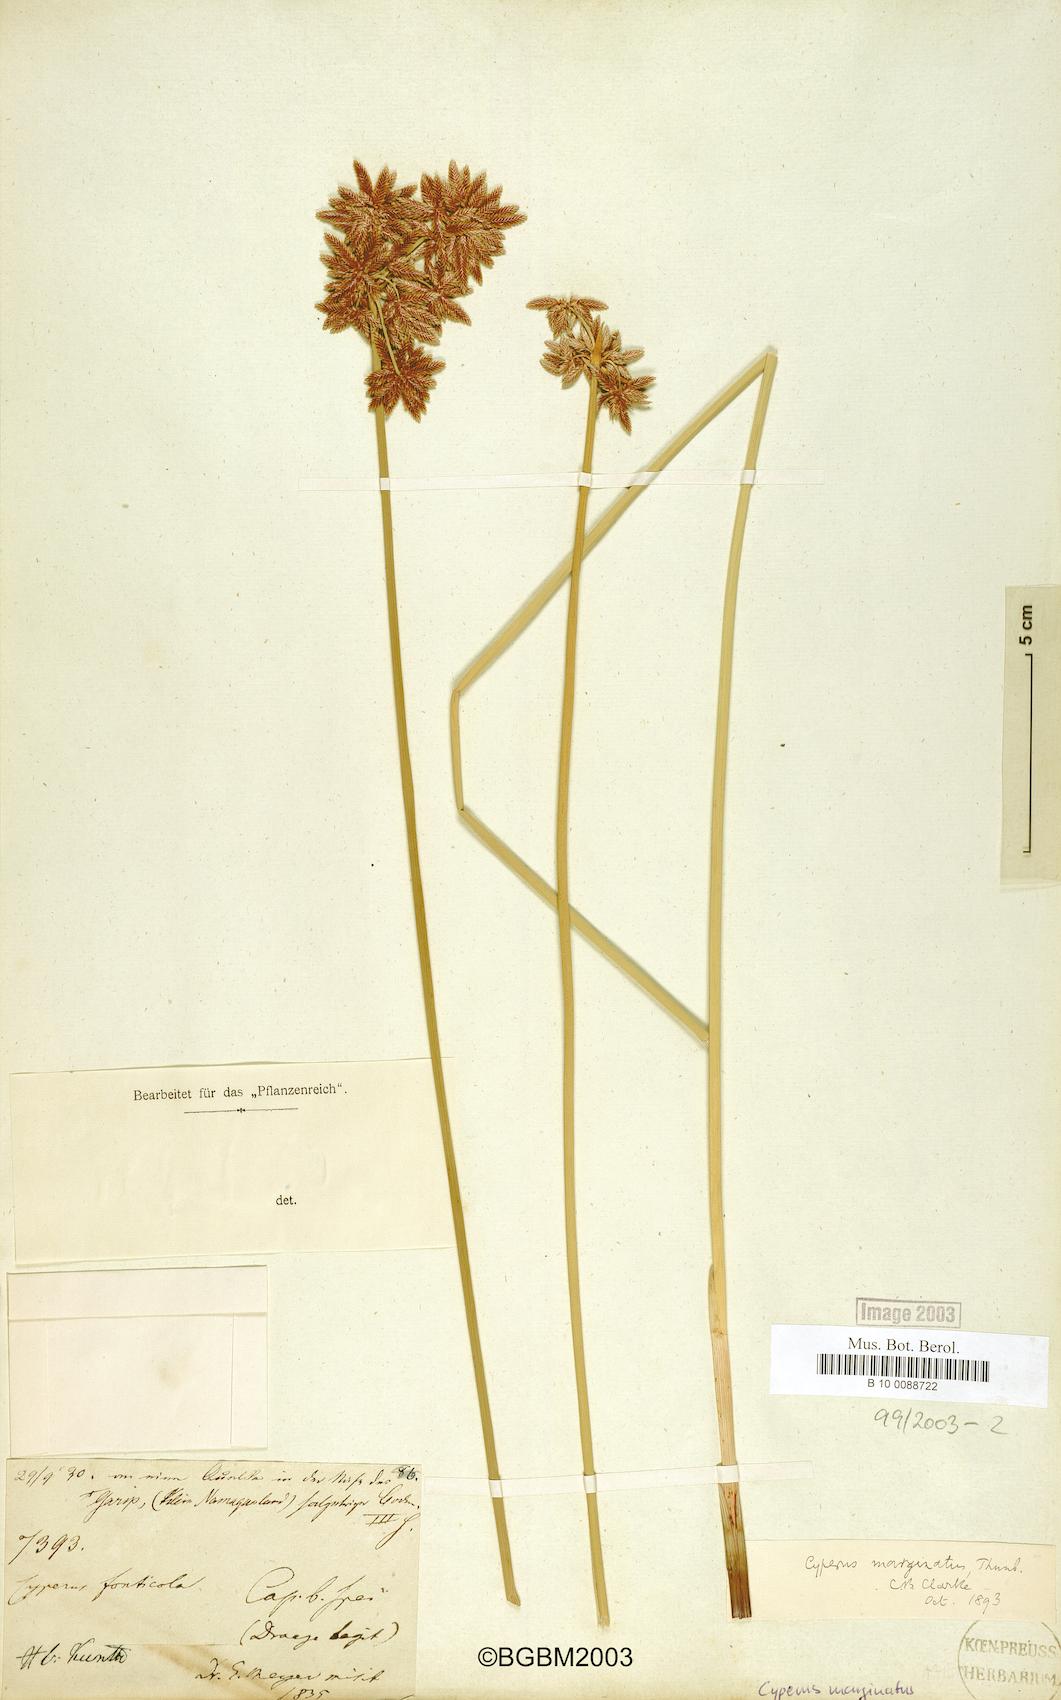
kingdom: Plantae
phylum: Tracheophyta
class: Liliopsida
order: Poales
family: Cyperaceae
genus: Cyperus
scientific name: Cyperus marginatus
